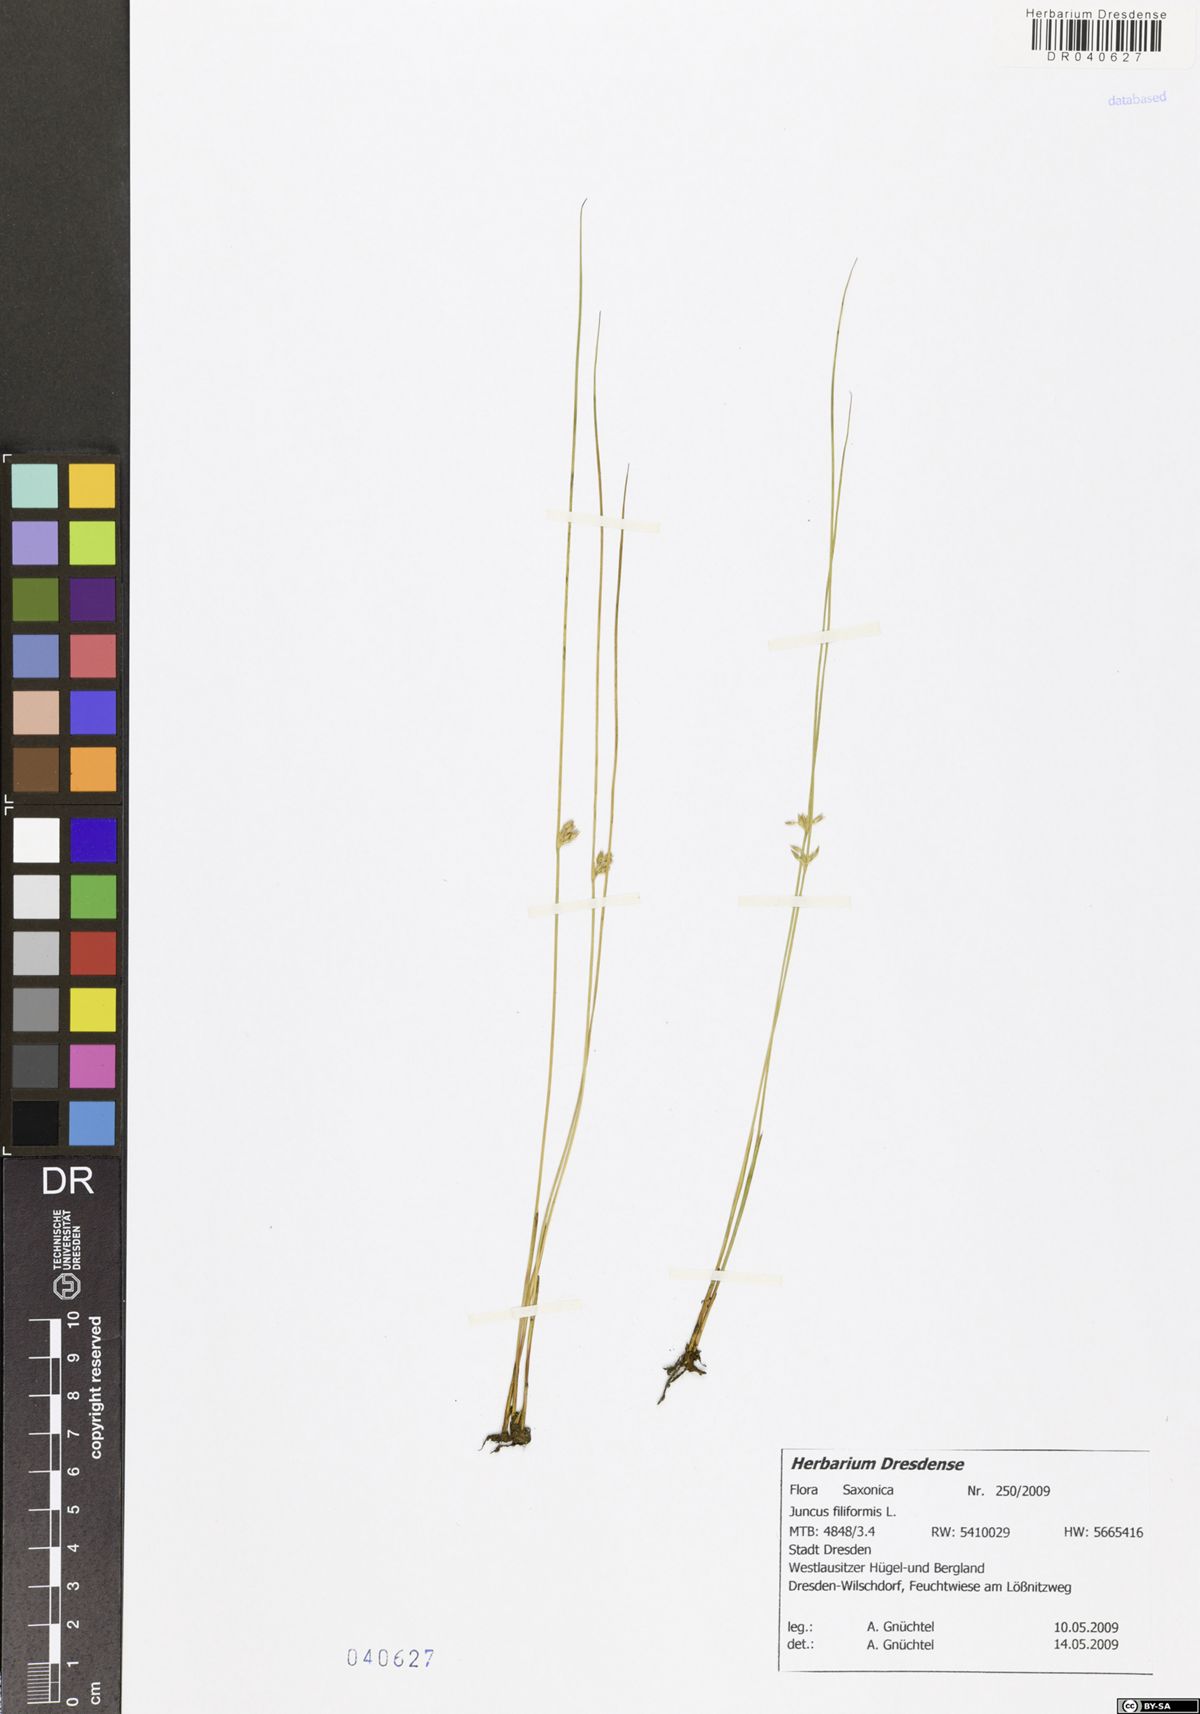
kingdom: Plantae
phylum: Tracheophyta
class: Liliopsida
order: Poales
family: Juncaceae
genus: Juncus
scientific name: Juncus inflexus
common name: Hard rush
